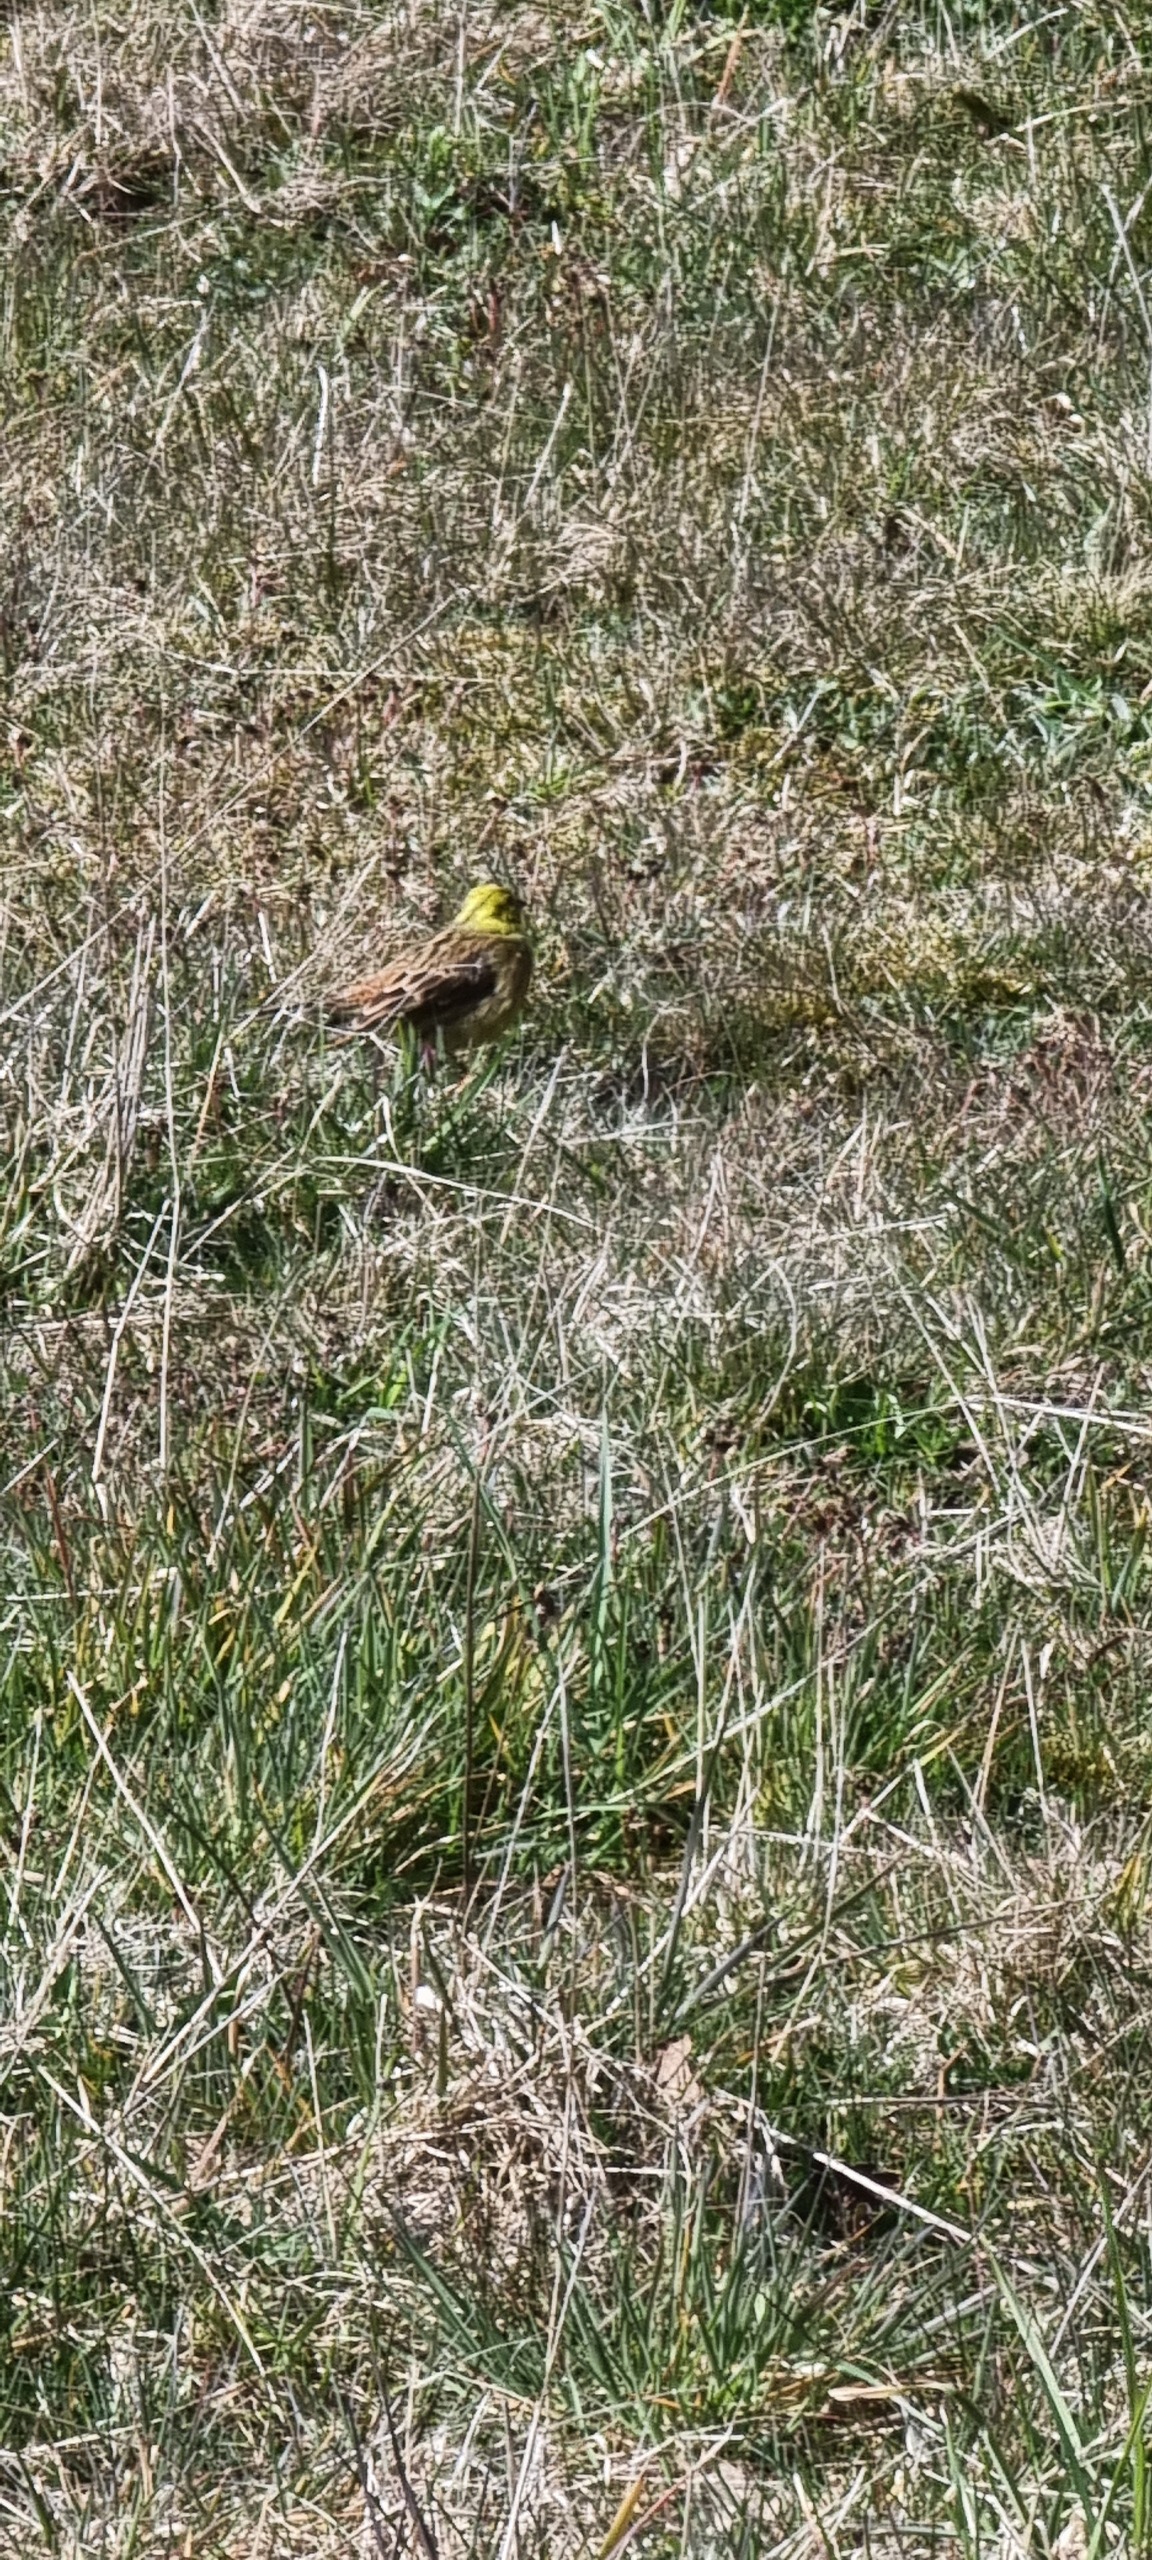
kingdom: Animalia
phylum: Chordata
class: Aves
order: Passeriformes
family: Emberizidae
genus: Emberiza
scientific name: Emberiza citrinella
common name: Gulspurv
